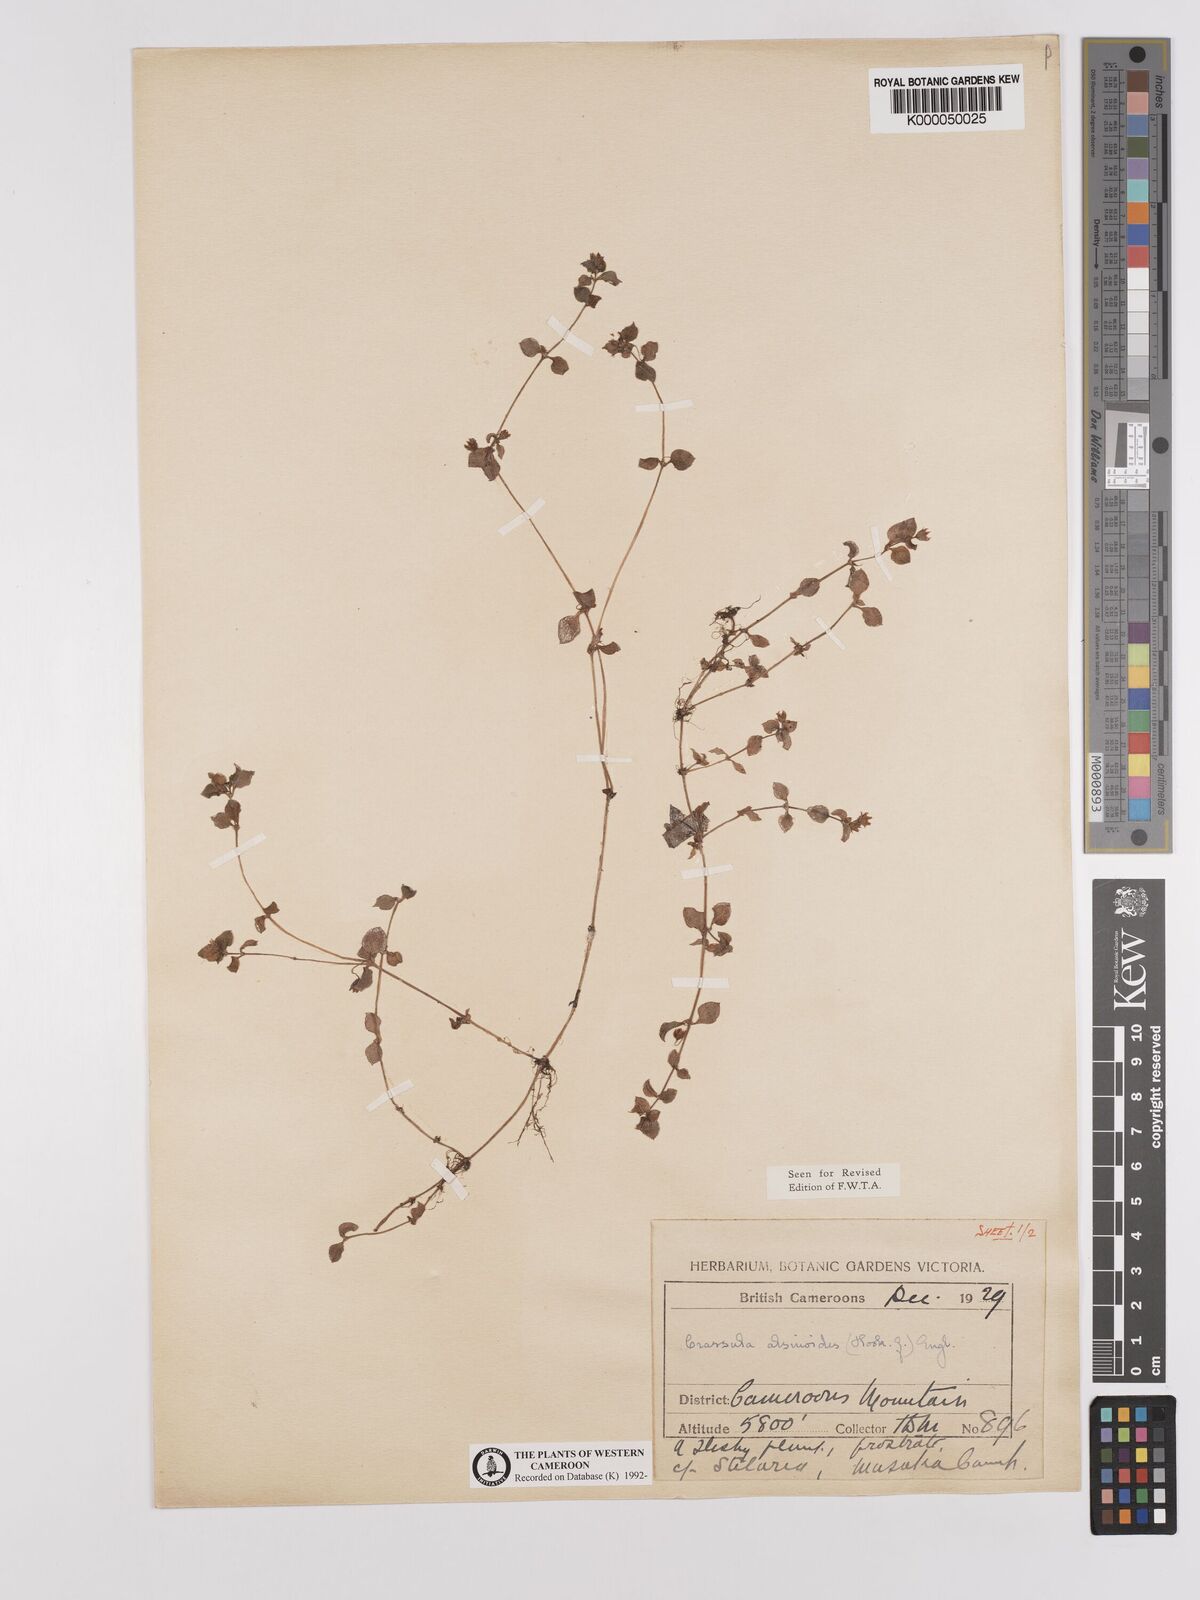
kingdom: Plantae
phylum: Tracheophyta
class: Magnoliopsida
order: Saxifragales
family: Crassulaceae
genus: Crassula
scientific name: Crassula alsinoides
